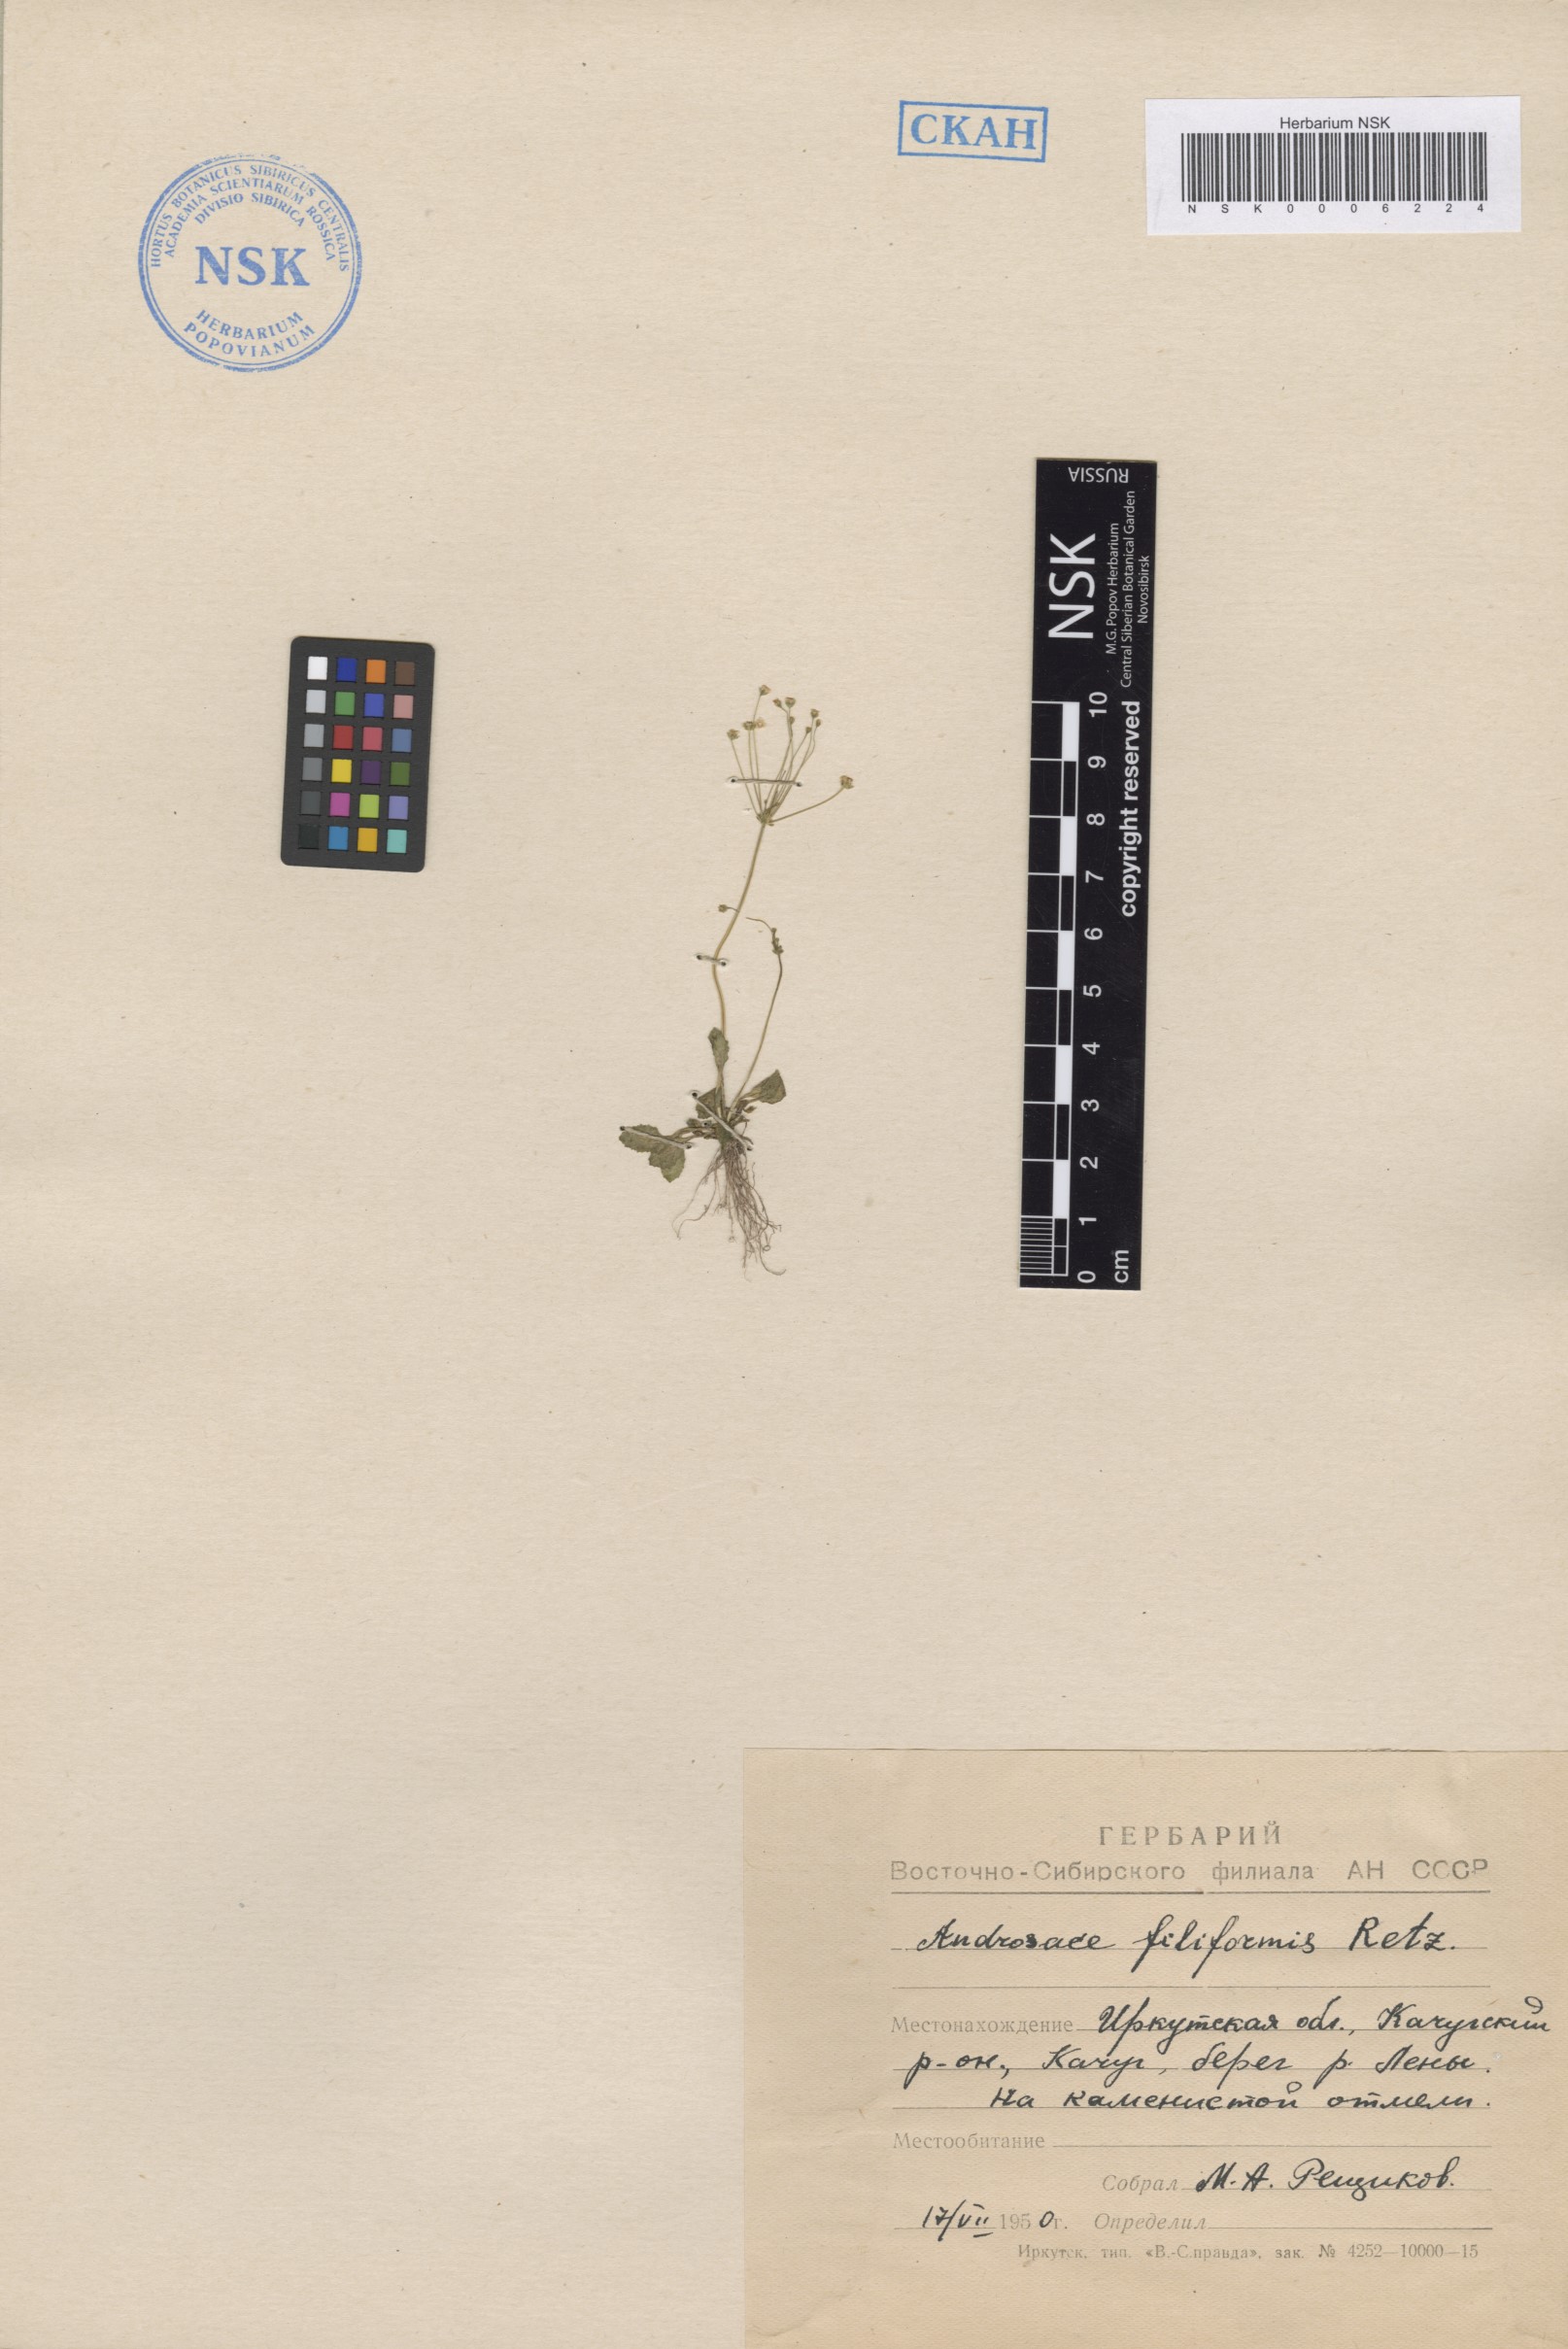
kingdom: Plantae
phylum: Tracheophyta
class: Magnoliopsida
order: Ericales
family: Primulaceae
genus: Androsace
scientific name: Androsace filiformis
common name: Filiform rock jasmine
